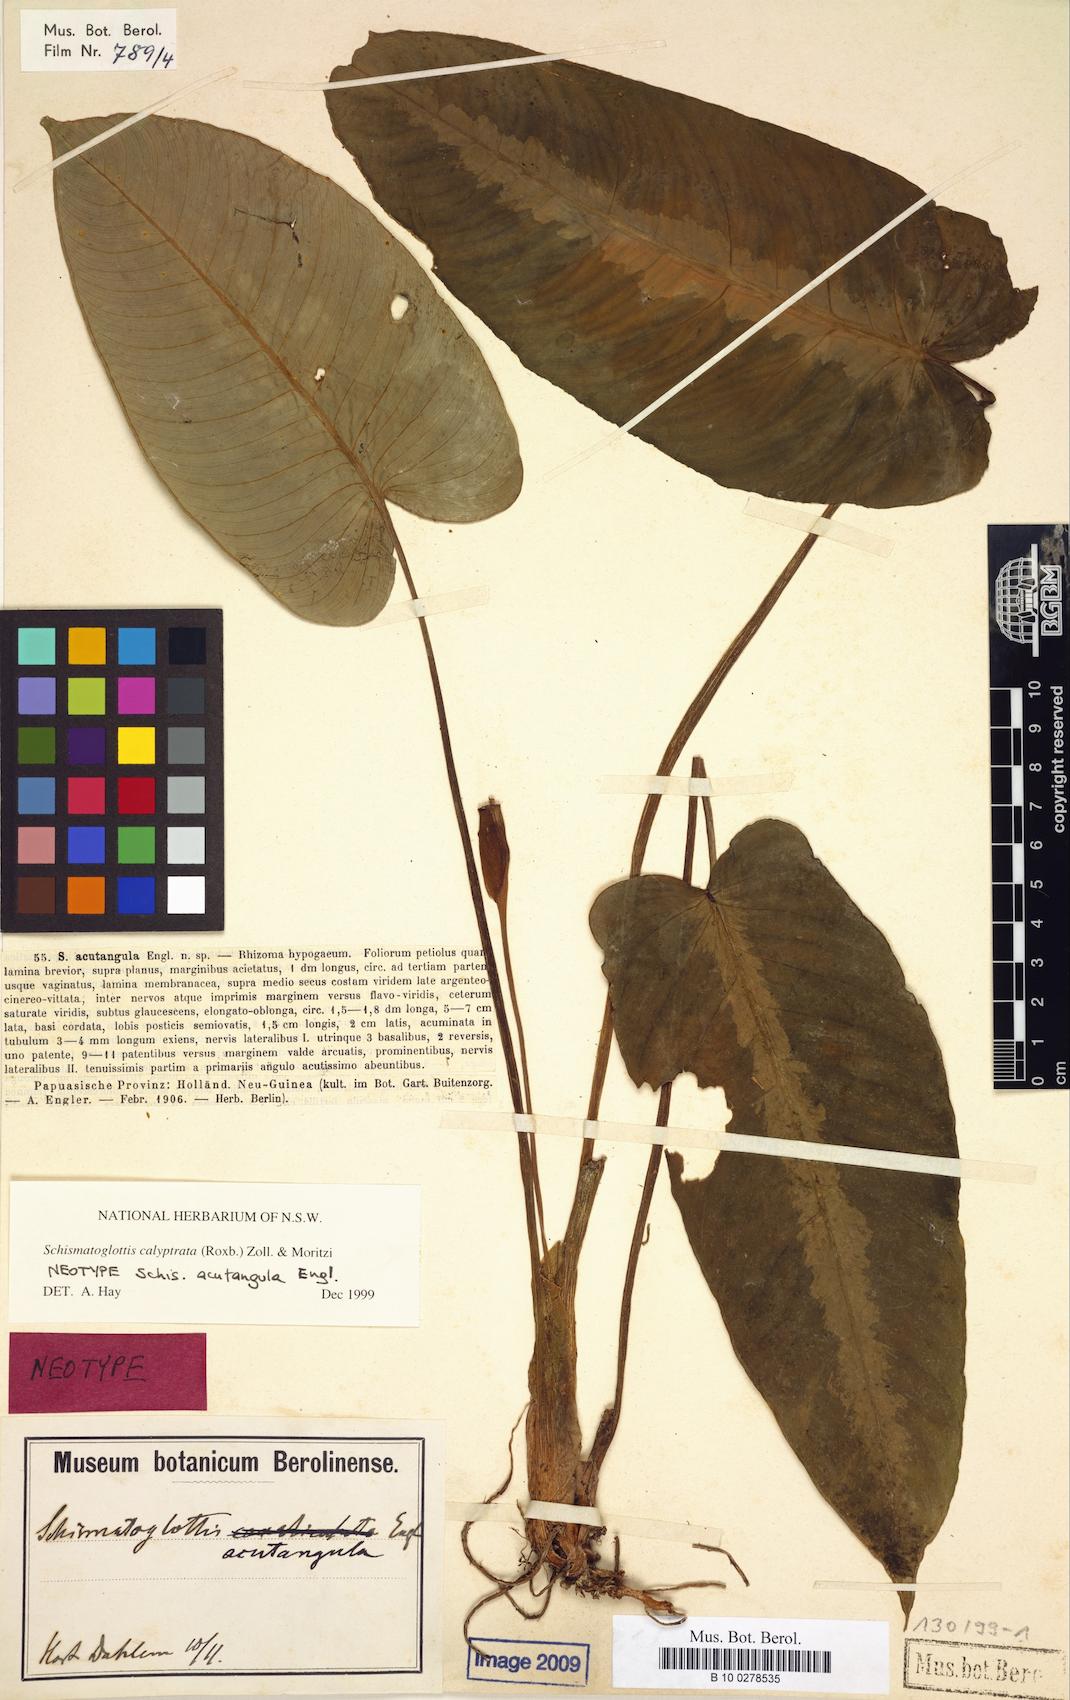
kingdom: Plantae
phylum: Tracheophyta
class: Liliopsida
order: Alismatales
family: Araceae
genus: Schismatoglottis
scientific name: Schismatoglottis calyptrata
